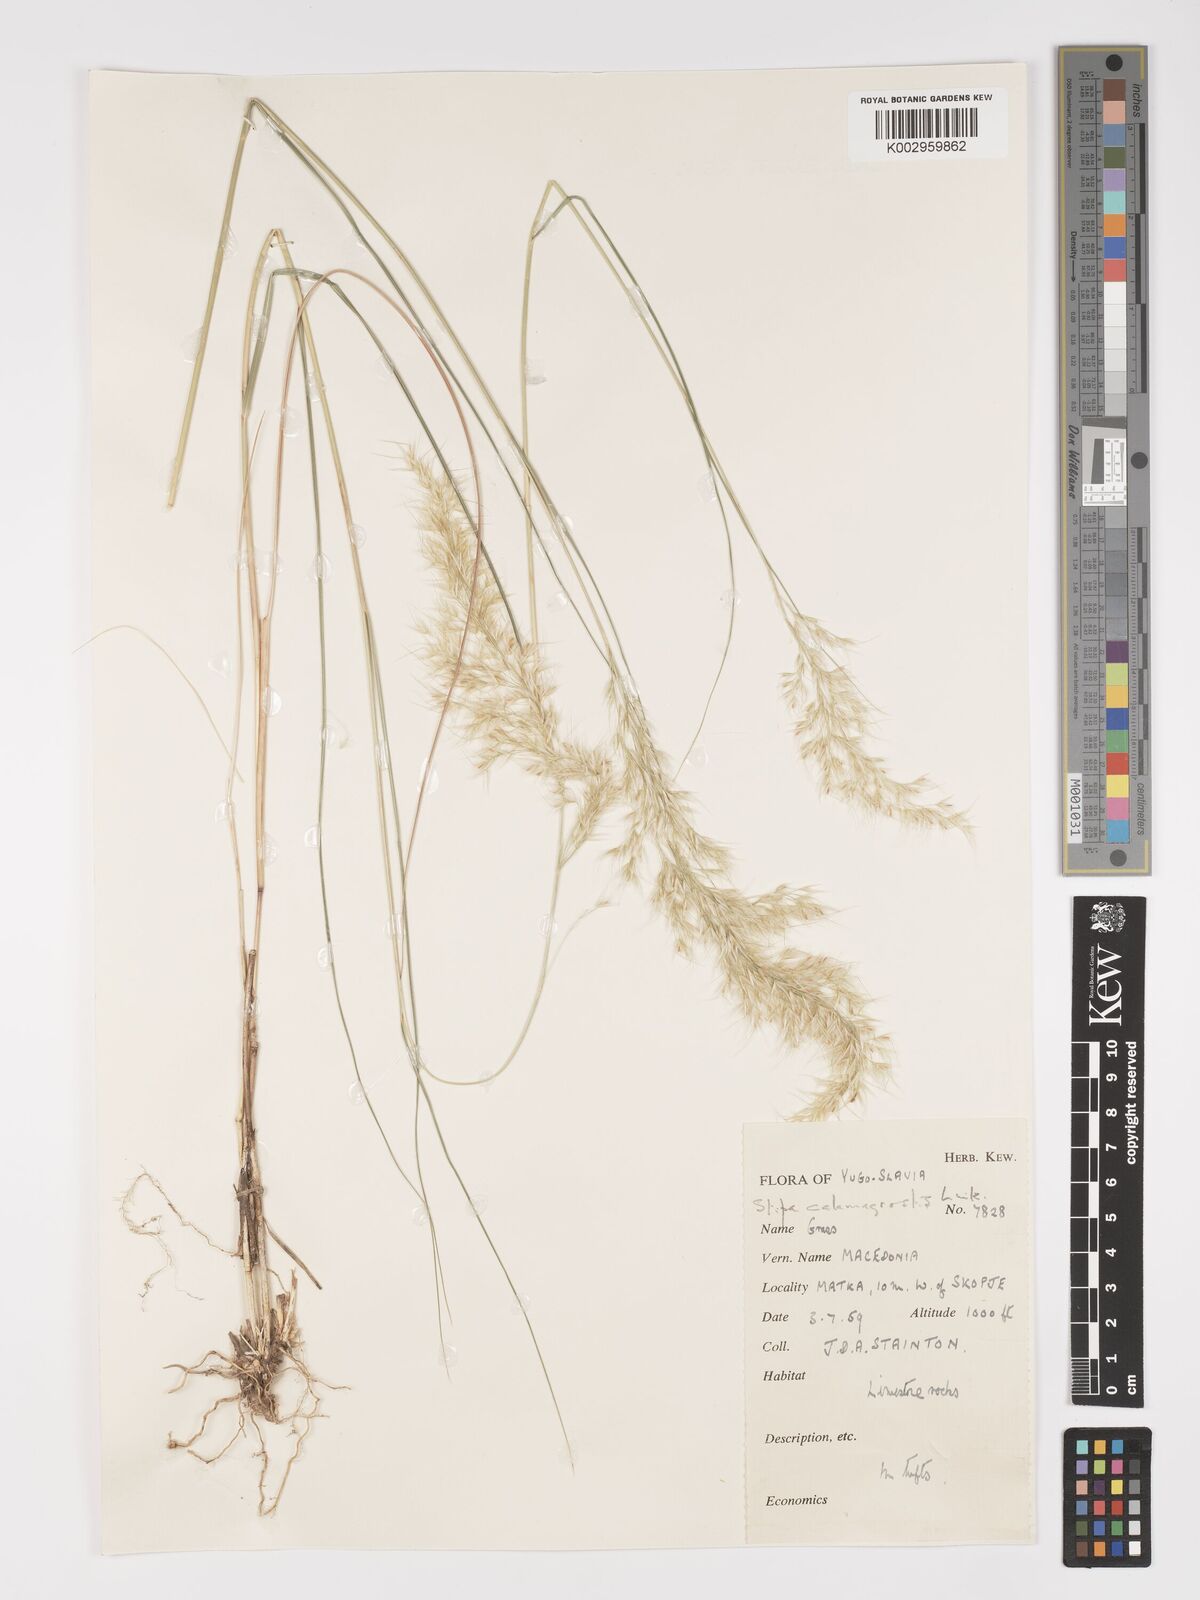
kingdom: Plantae
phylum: Tracheophyta
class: Liliopsida
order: Poales
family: Poaceae
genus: Achnatherum
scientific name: Achnatherum calamagrostis
